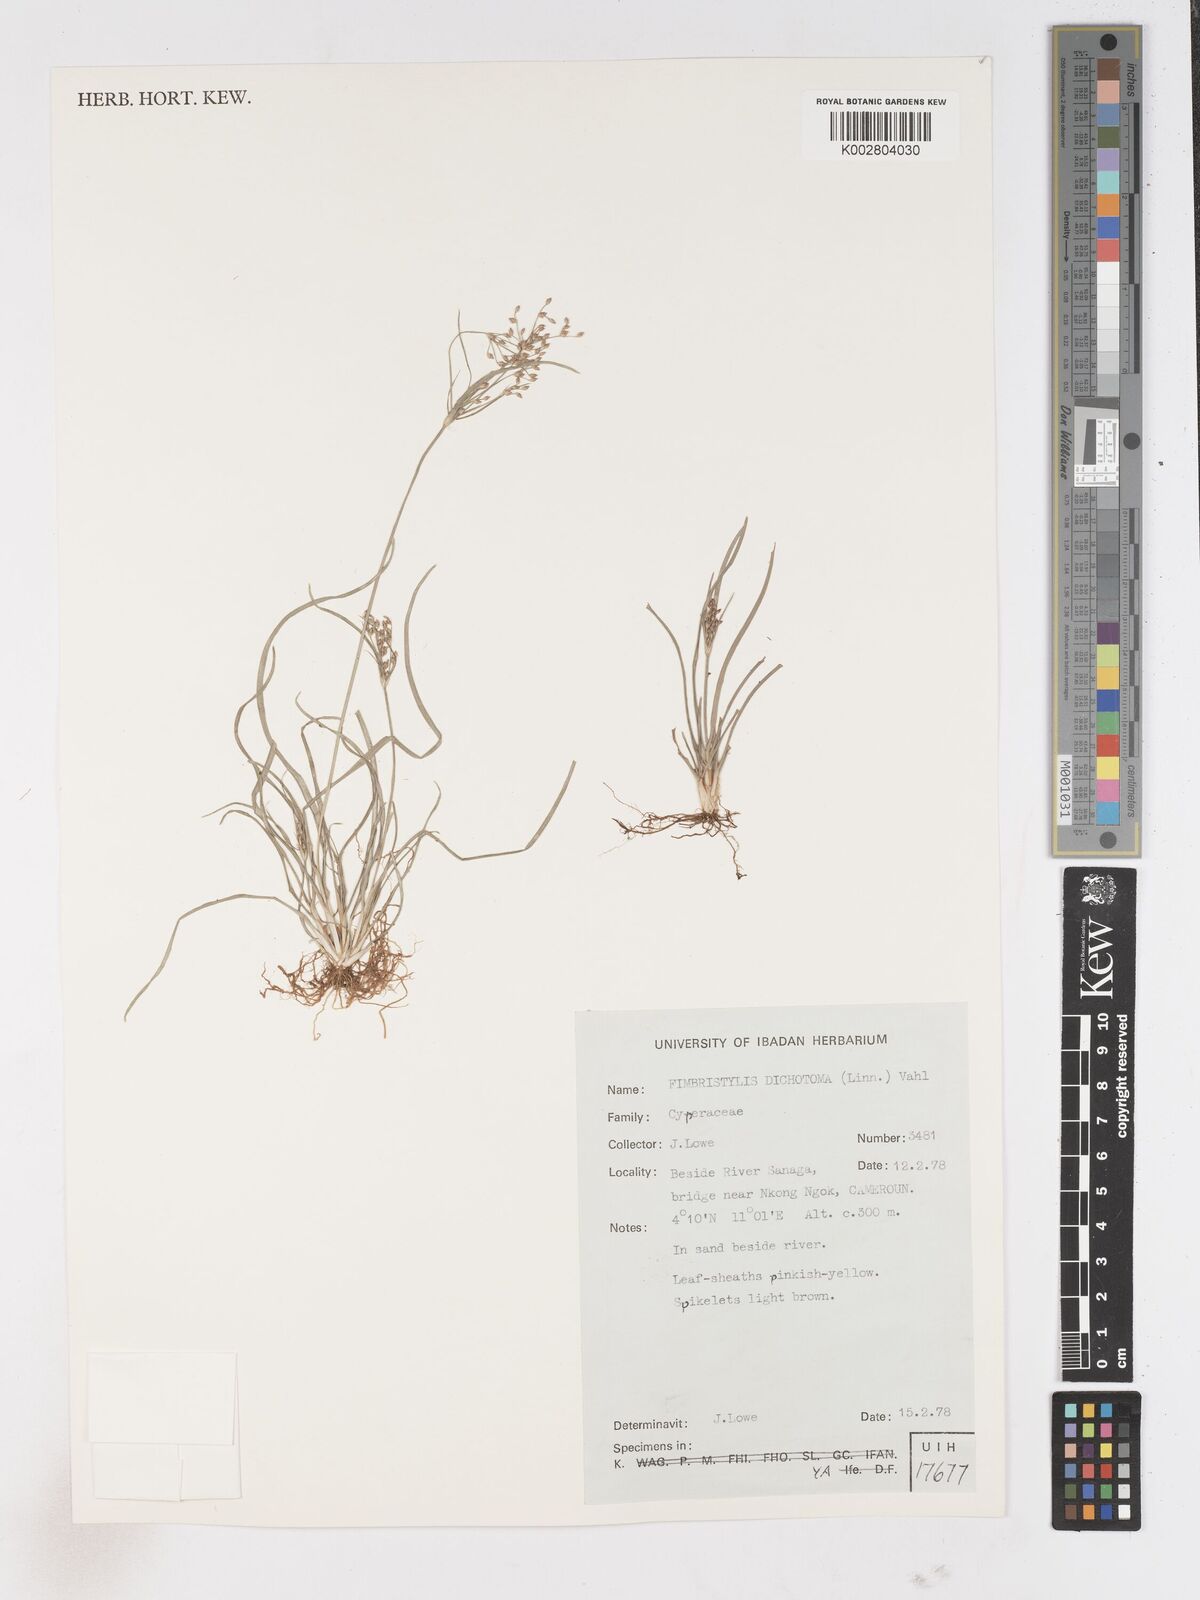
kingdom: Plantae
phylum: Tracheophyta
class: Liliopsida
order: Poales
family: Cyperaceae
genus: Fimbristylis
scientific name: Fimbristylis dichotoma
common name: Forked fimbry
